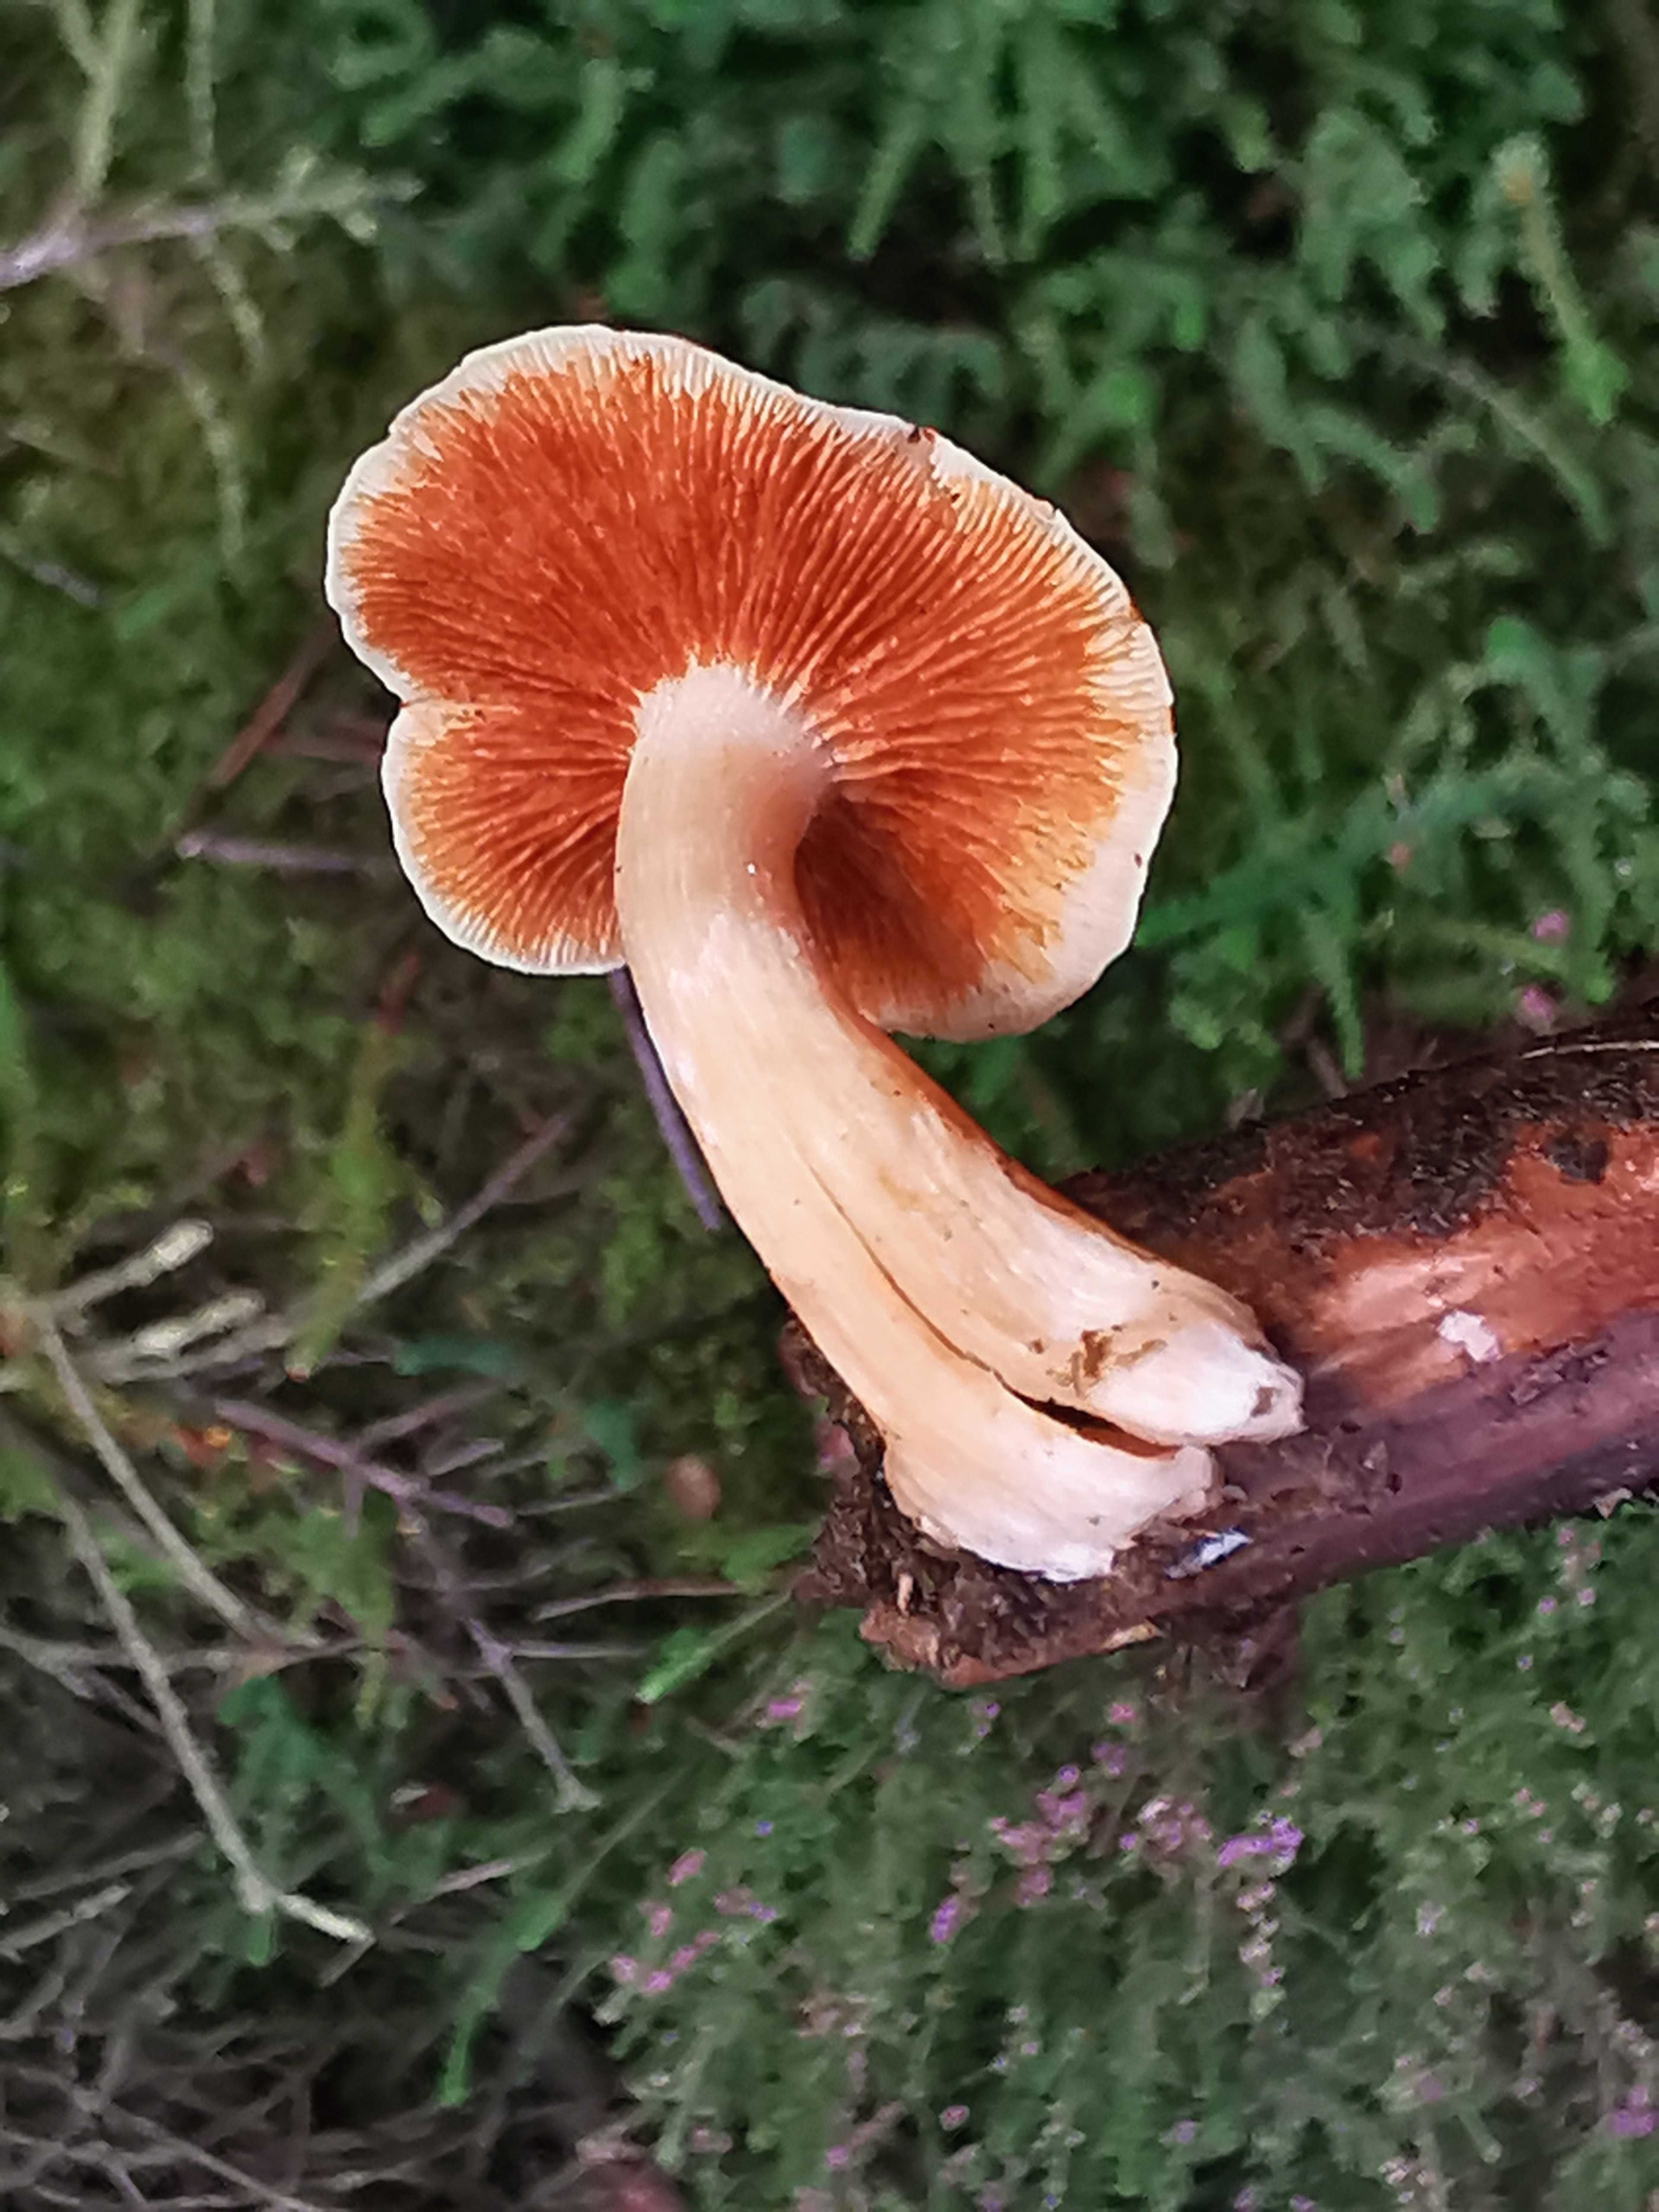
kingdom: Fungi
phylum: Basidiomycota
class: Agaricomycetes
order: Agaricales
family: Hymenogastraceae
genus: Gymnopilus
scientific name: Gymnopilus penetrans
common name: plettet flammehat
